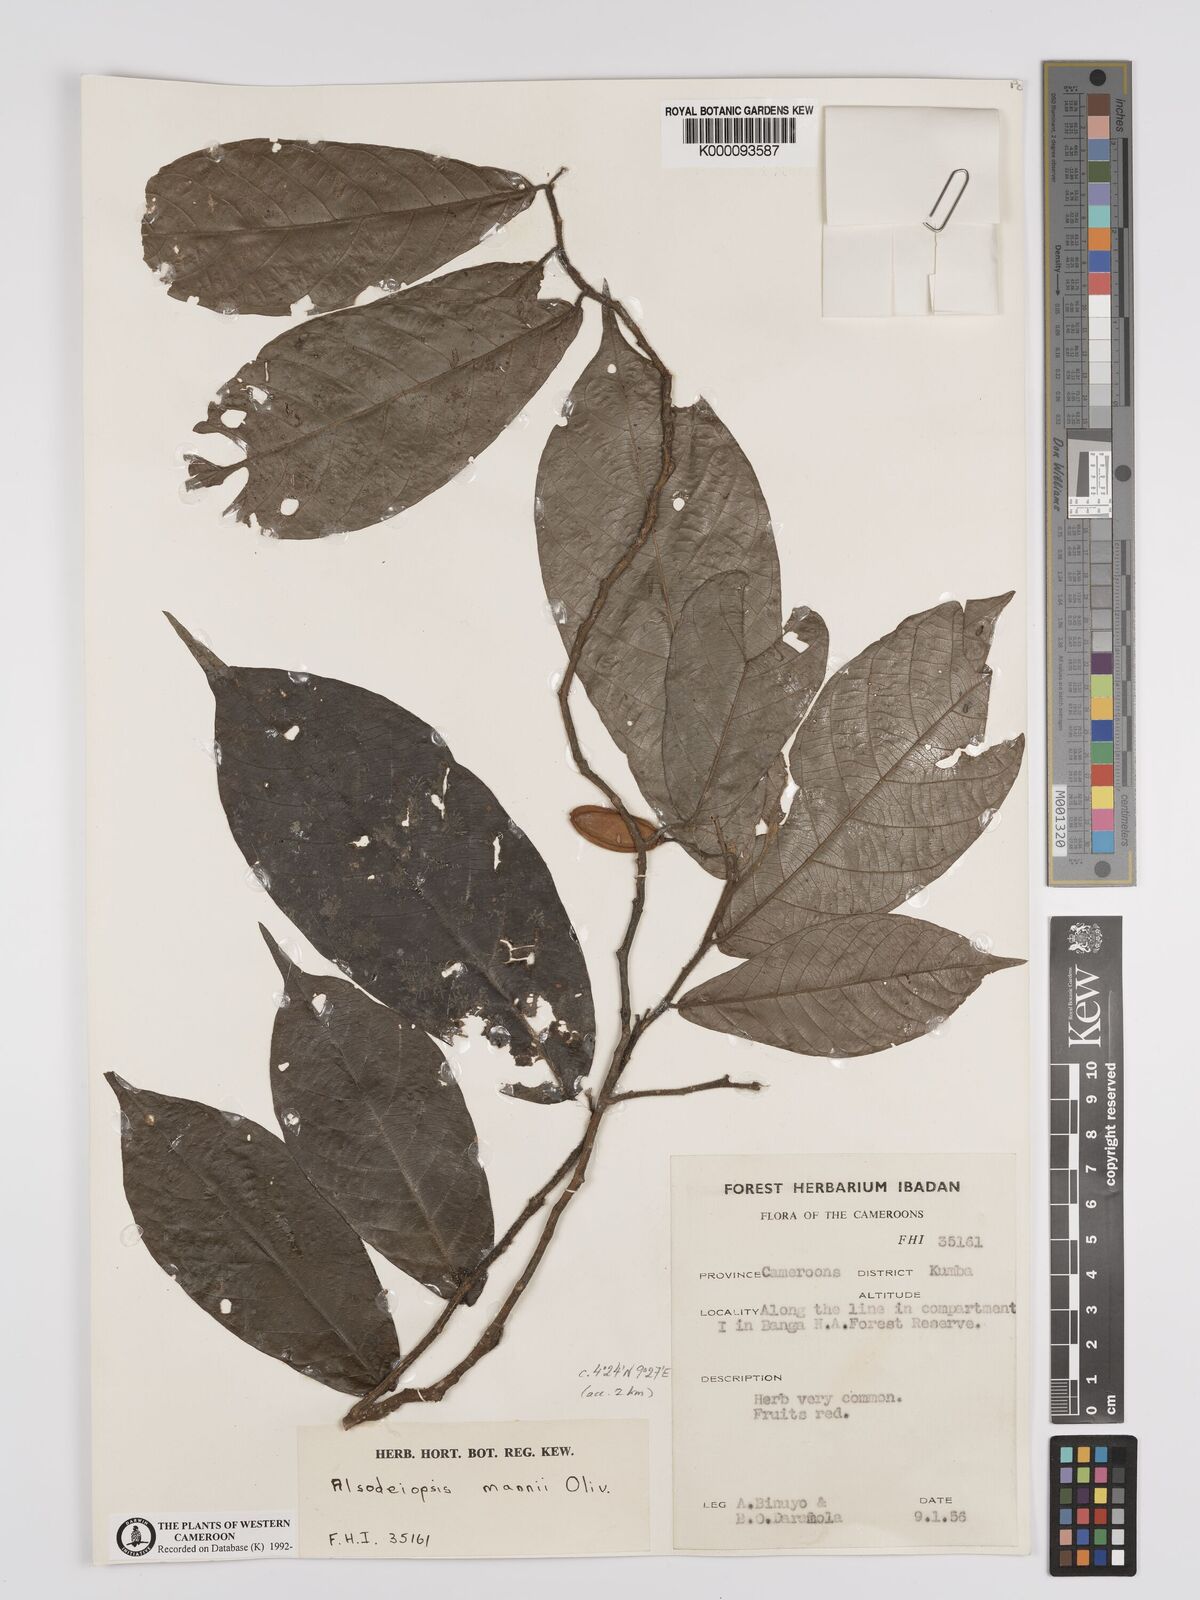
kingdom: Plantae
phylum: Tracheophyta
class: Magnoliopsida
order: Icacinales
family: Icacinaceae
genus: Alsodeiopsis
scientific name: Alsodeiopsis mannii
